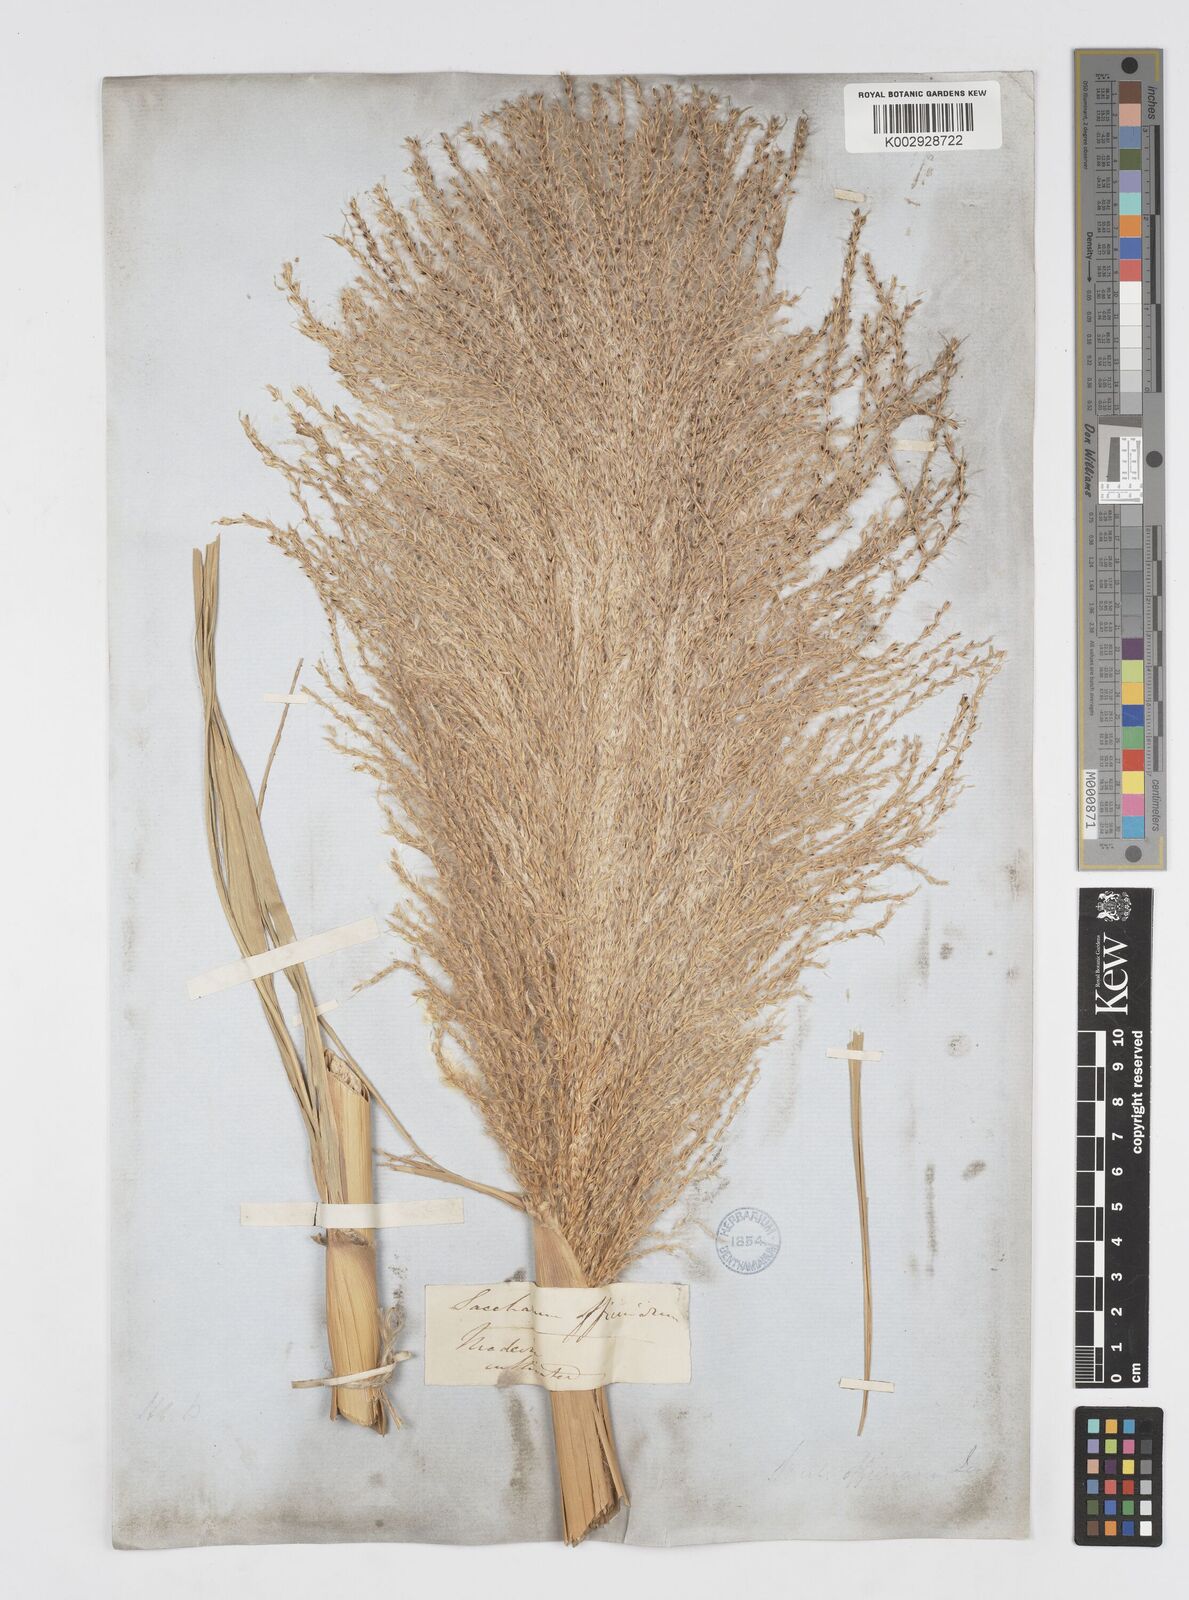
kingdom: Plantae
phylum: Tracheophyta
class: Liliopsida
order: Poales
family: Poaceae
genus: Saccharum
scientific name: Saccharum officinarum
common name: Sugarcane
